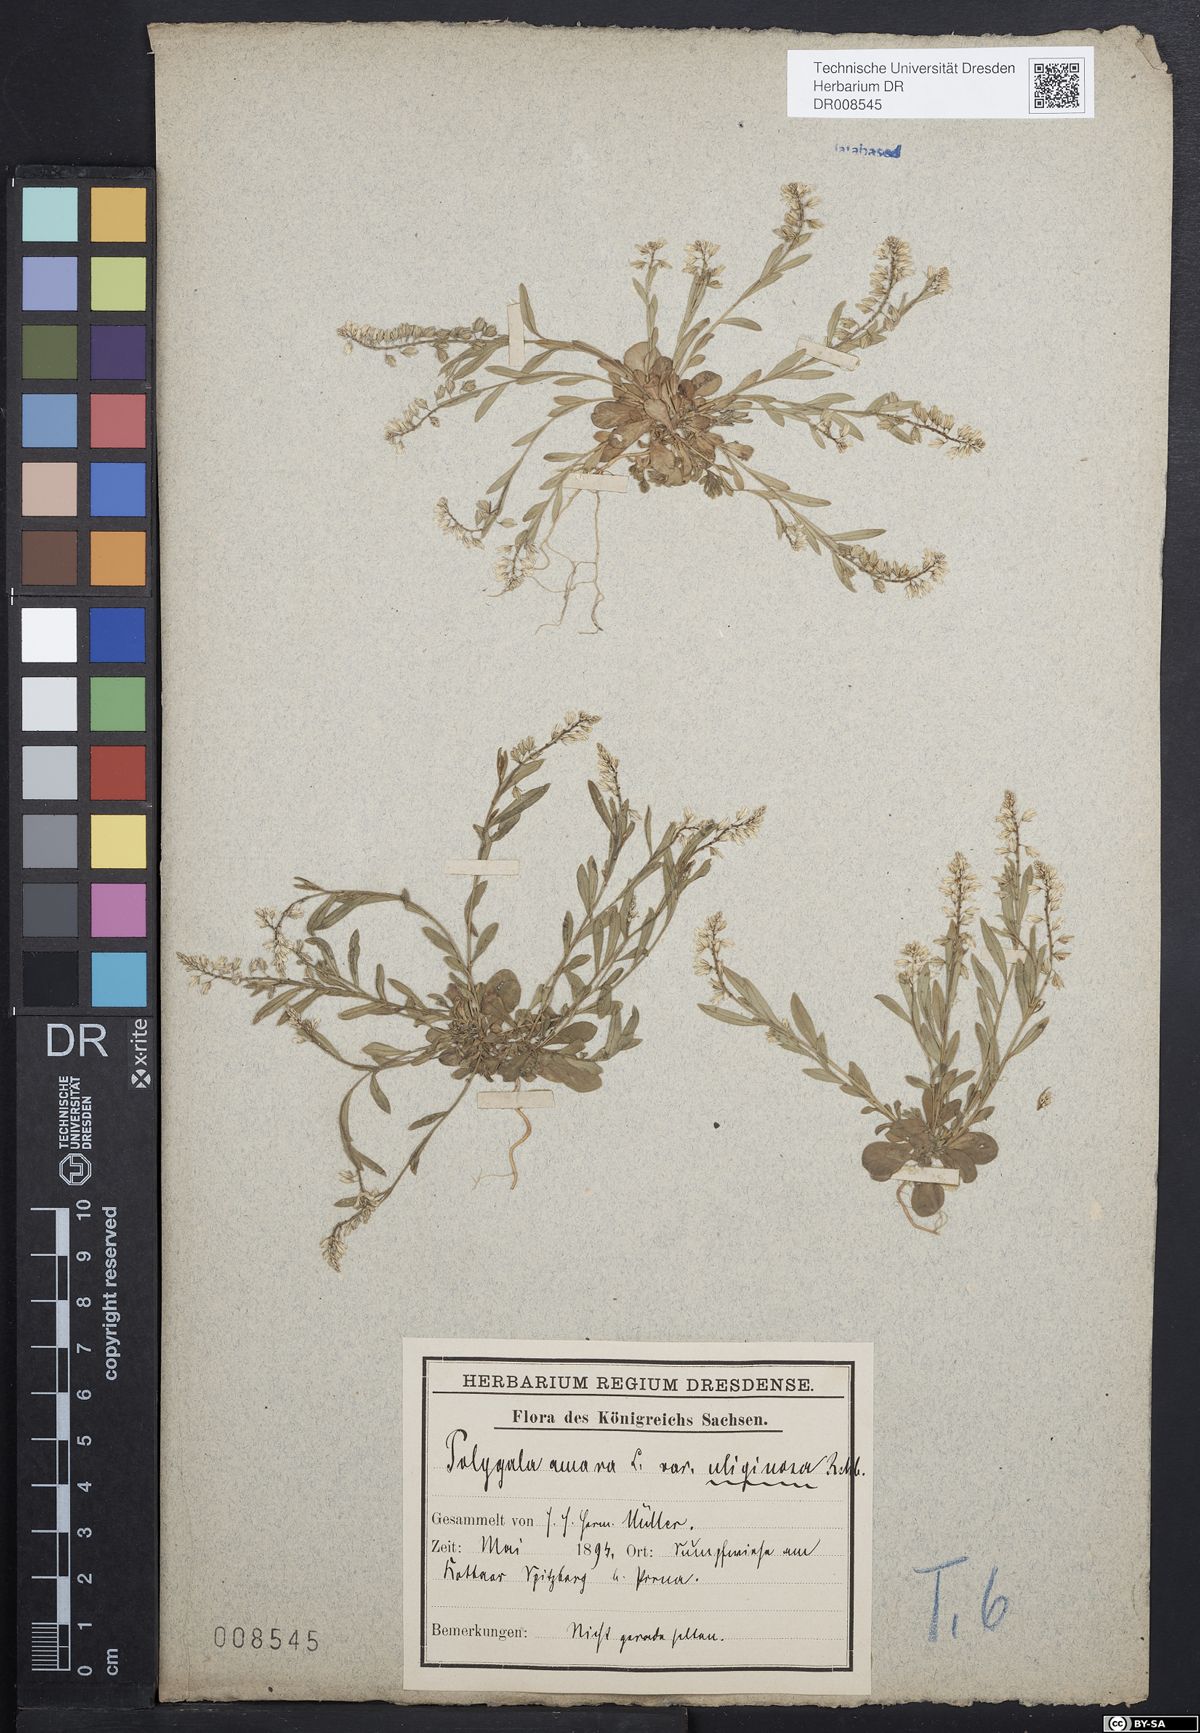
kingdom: Plantae
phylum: Tracheophyta
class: Magnoliopsida
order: Fabales
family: Polygalaceae
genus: Polygala
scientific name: Polygala amarella
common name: Dwarf milkwort
